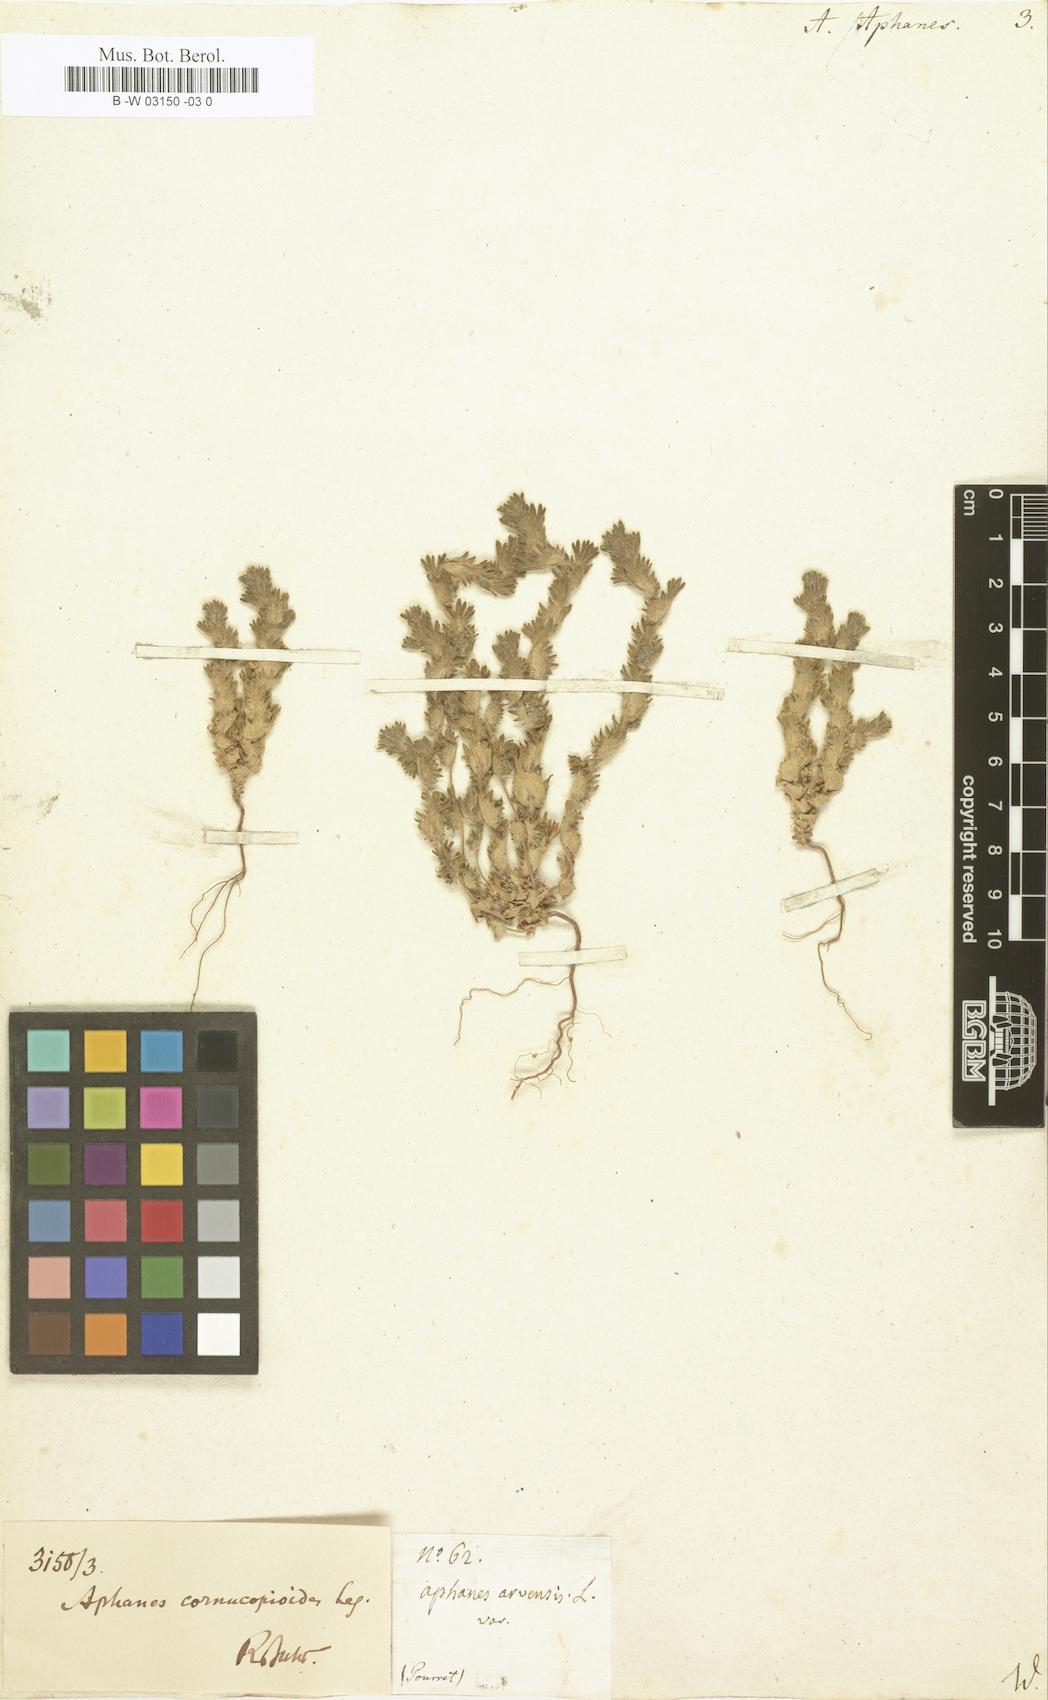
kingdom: Plantae
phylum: Tracheophyta
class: Magnoliopsida
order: Rosales
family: Rosaceae
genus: Aphanes
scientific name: Aphanes arvensis
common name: Parsley-piert
